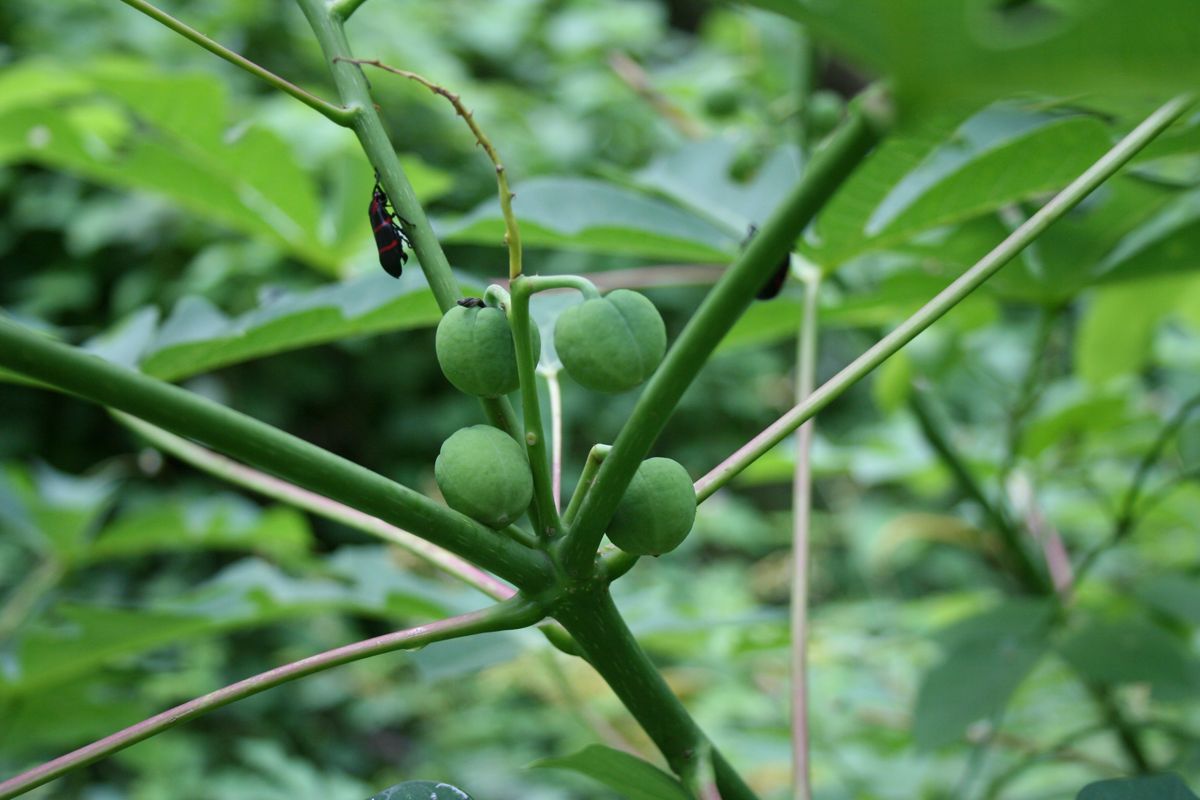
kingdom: Plantae
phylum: Tracheophyta
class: Magnoliopsida
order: Malpighiales
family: Euphorbiaceae
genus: Manihot
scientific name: Manihot aesculifolia
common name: Buckeye-leafed cassava
